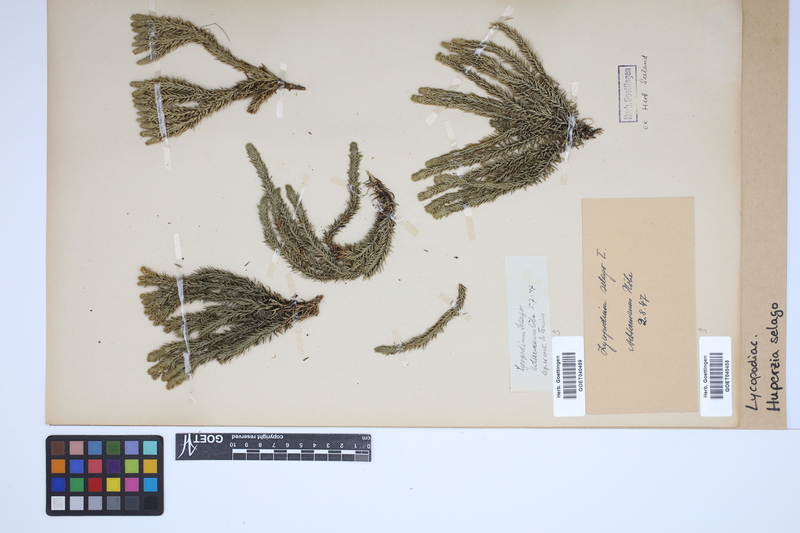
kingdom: Plantae
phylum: Tracheophyta
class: Lycopodiopsida
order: Lycopodiales
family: Lycopodiaceae
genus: Huperzia
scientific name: Huperzia selago
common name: Northern firmoss
